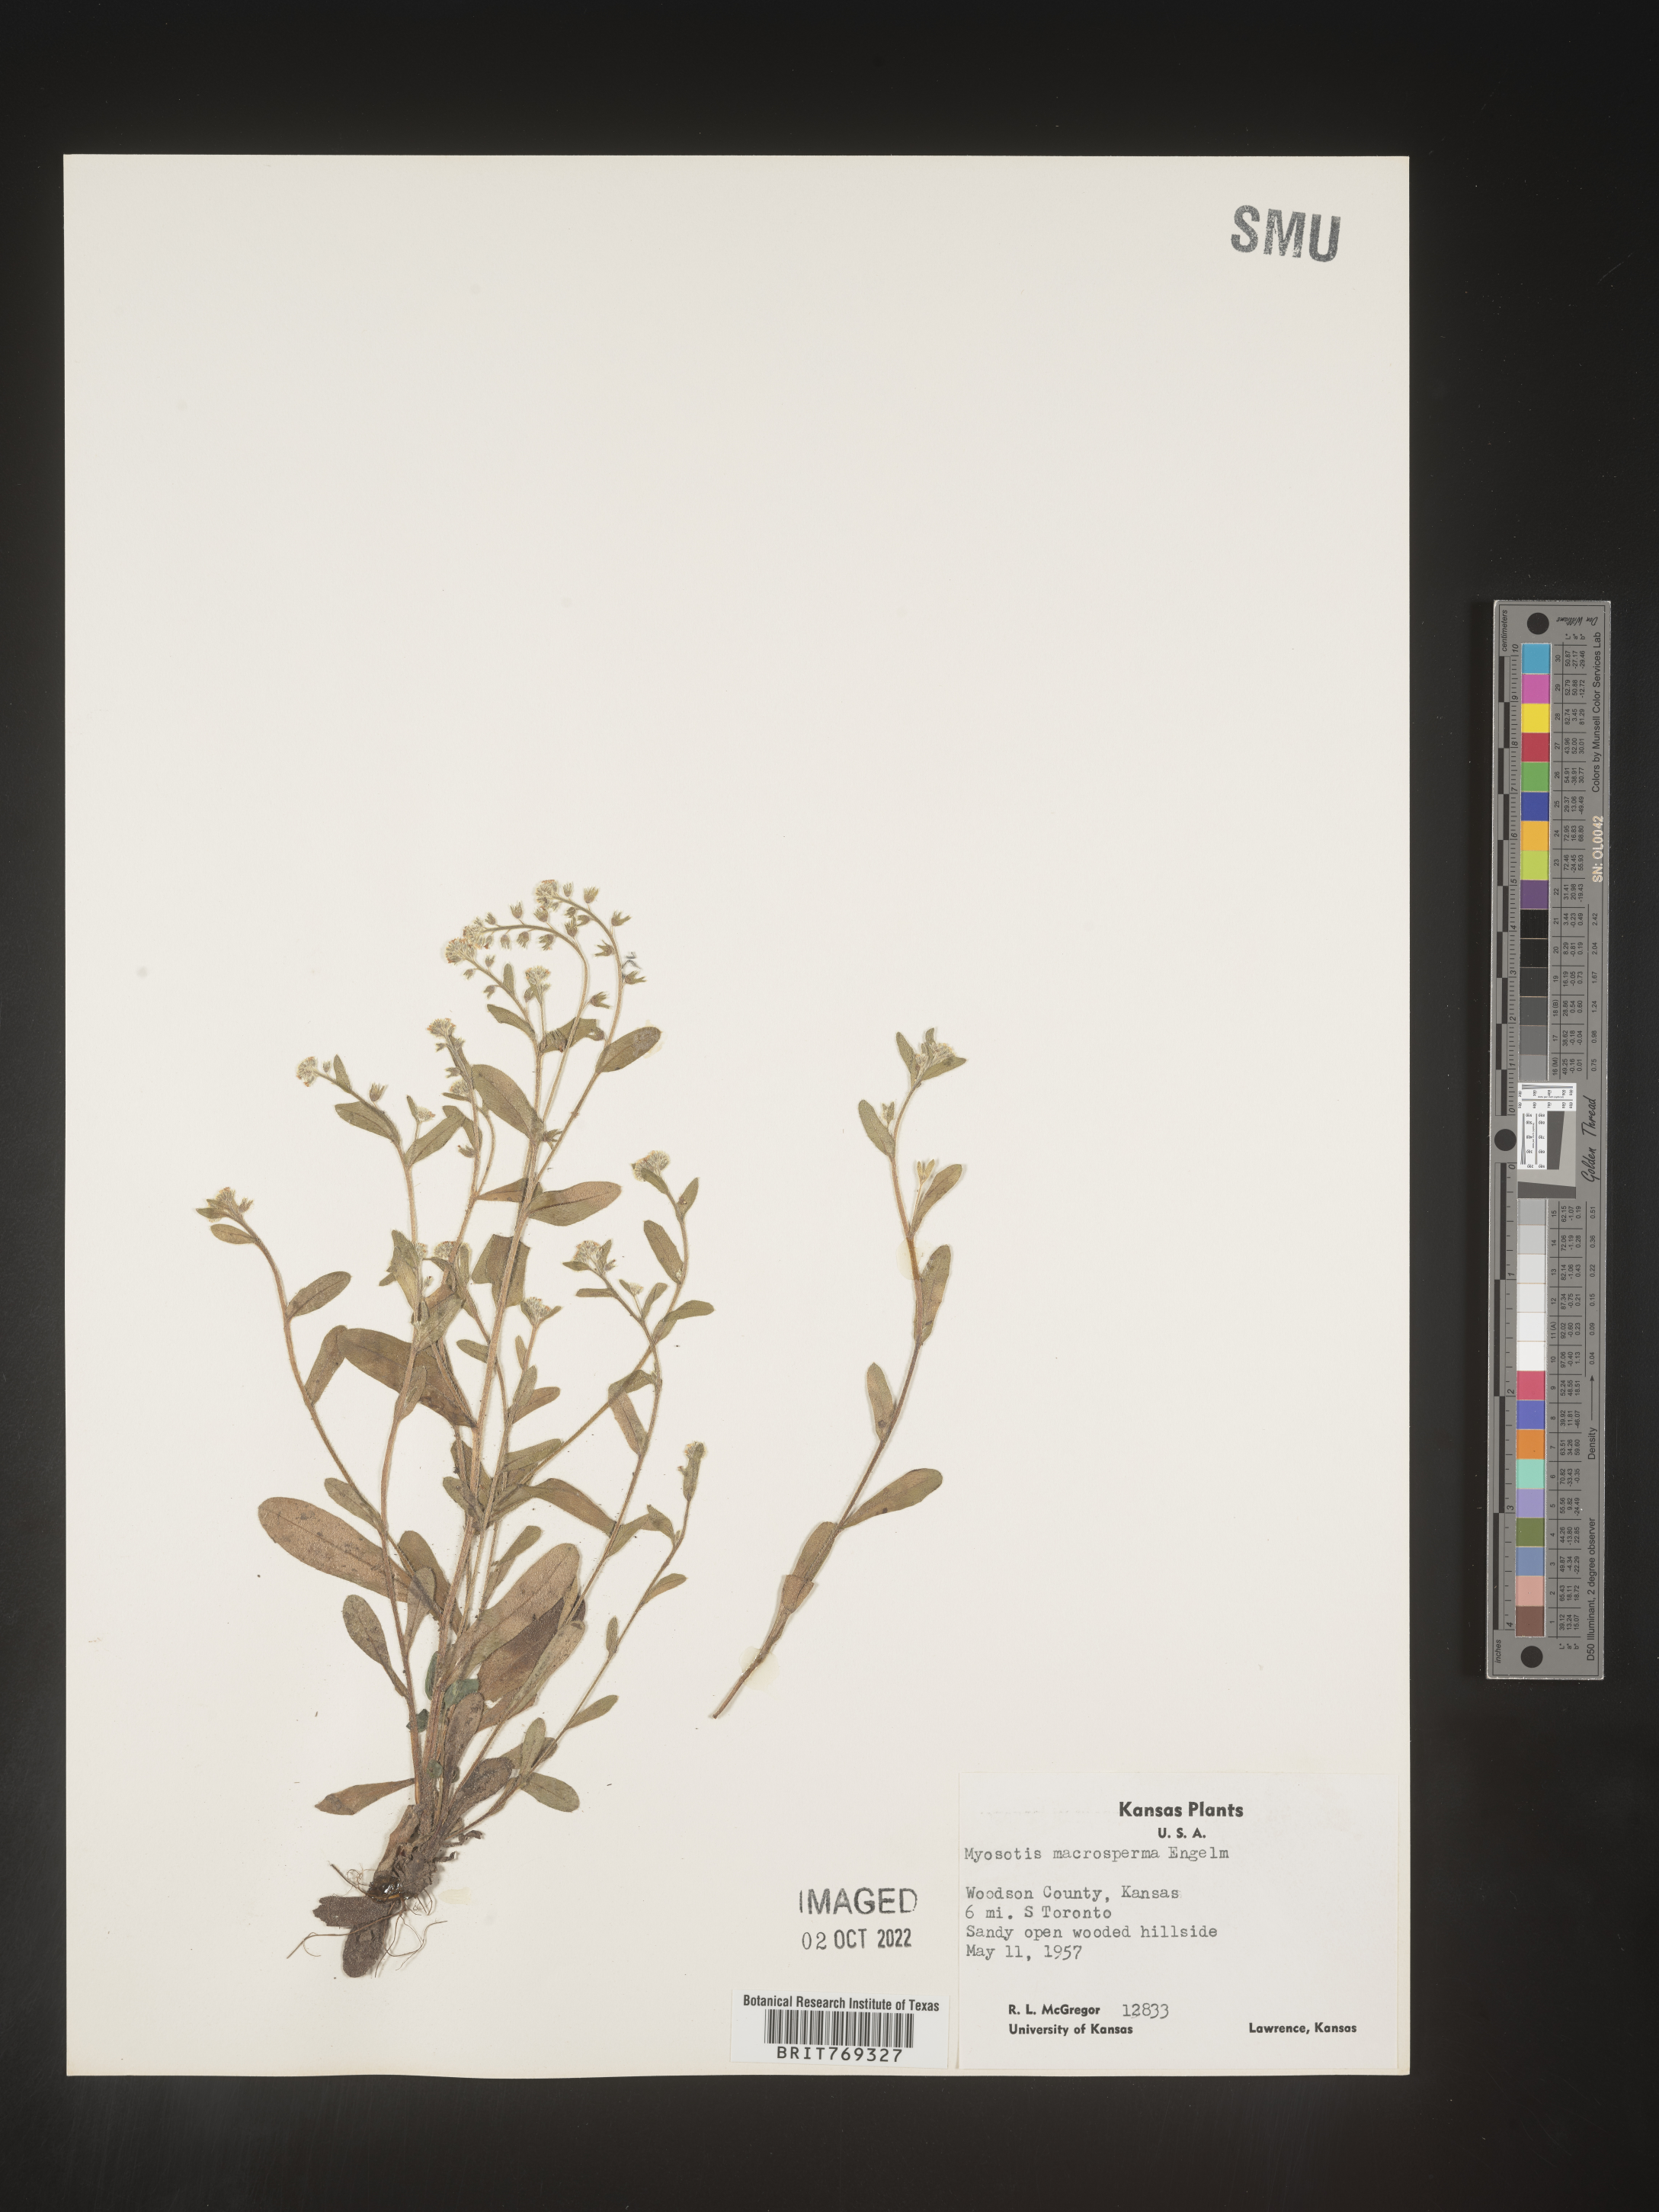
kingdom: Plantae
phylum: Tracheophyta
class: Magnoliopsida
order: Boraginales
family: Boraginaceae
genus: Myosotis
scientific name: Myosotis macrosperma
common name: Large-seed forget-me-not
